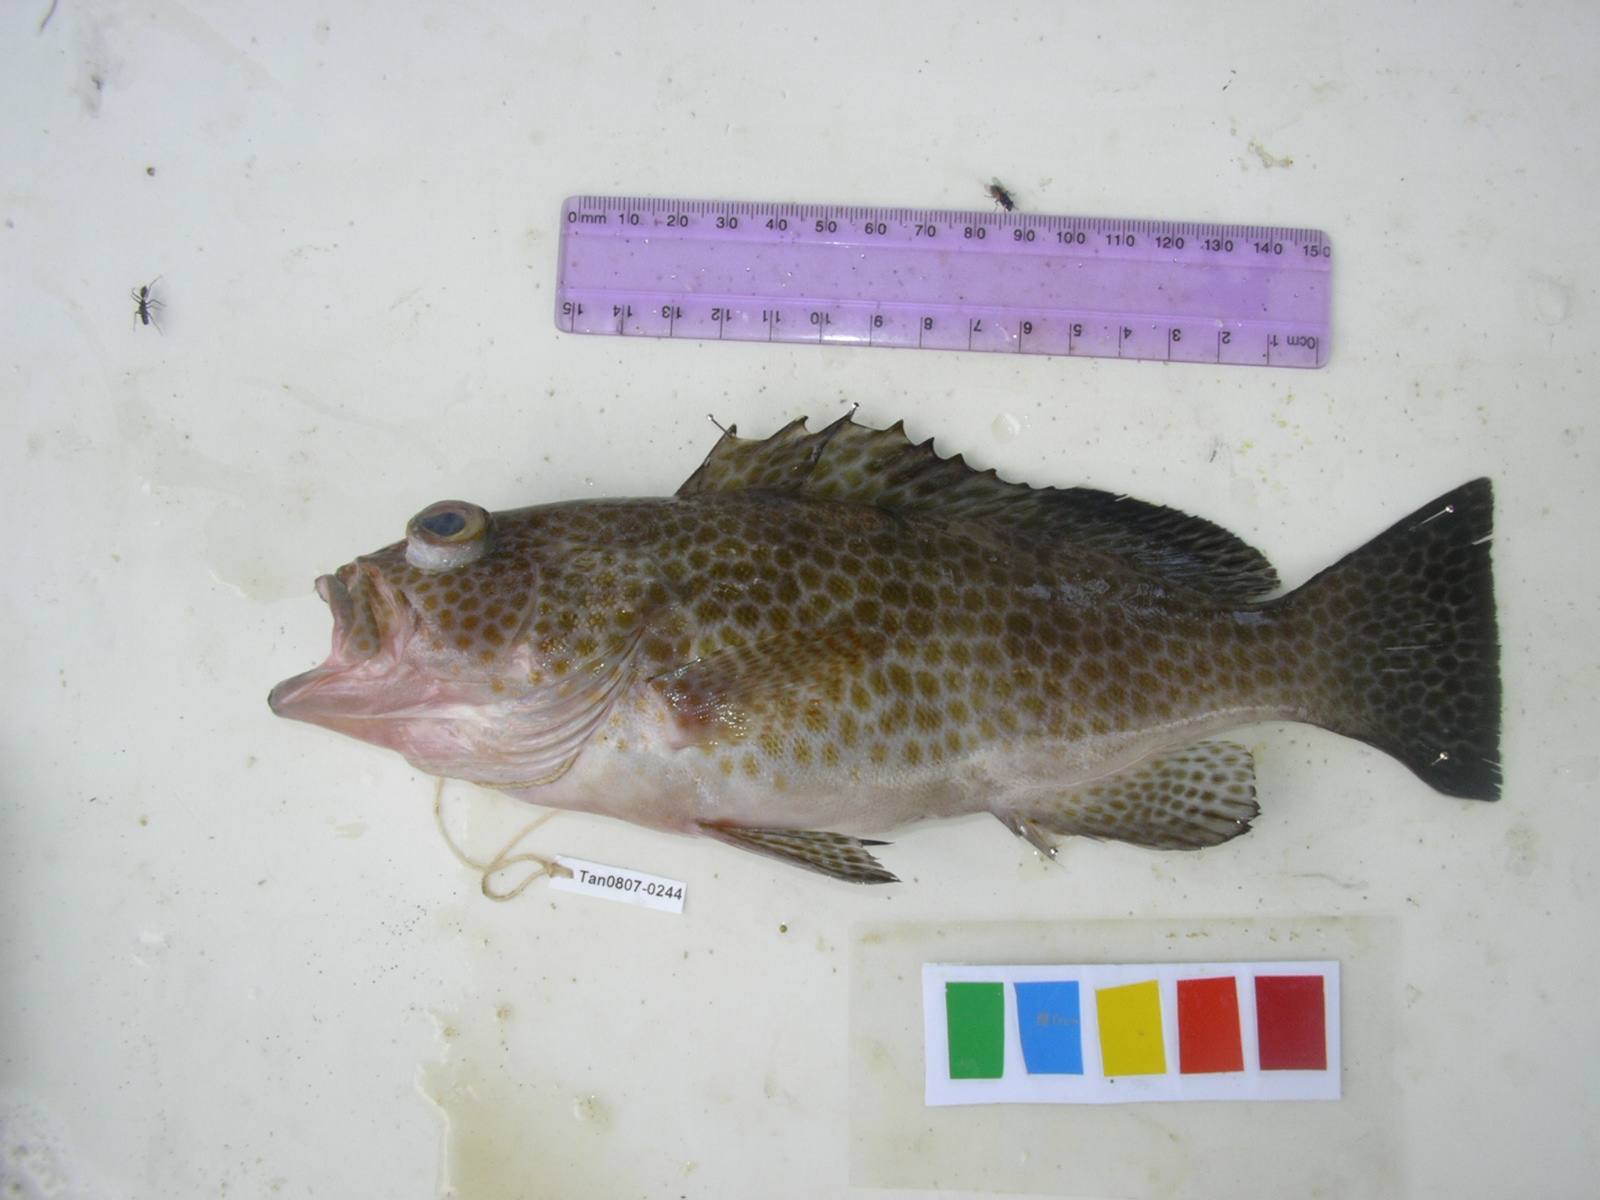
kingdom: Animalia
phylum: Chordata
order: Perciformes
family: Serranidae
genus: Epinephelus
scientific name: Epinephelus areolatus
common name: Areolate grouper
